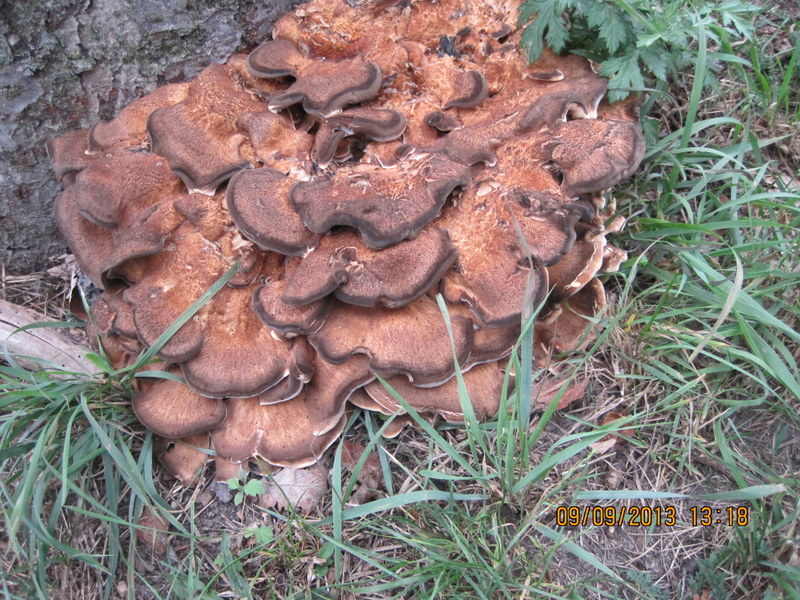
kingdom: Fungi
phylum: Basidiomycota
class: Agaricomycetes
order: Polyporales
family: Meripilaceae
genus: Meripilus
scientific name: Meripilus giganteus
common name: kæmpeporesvamp
